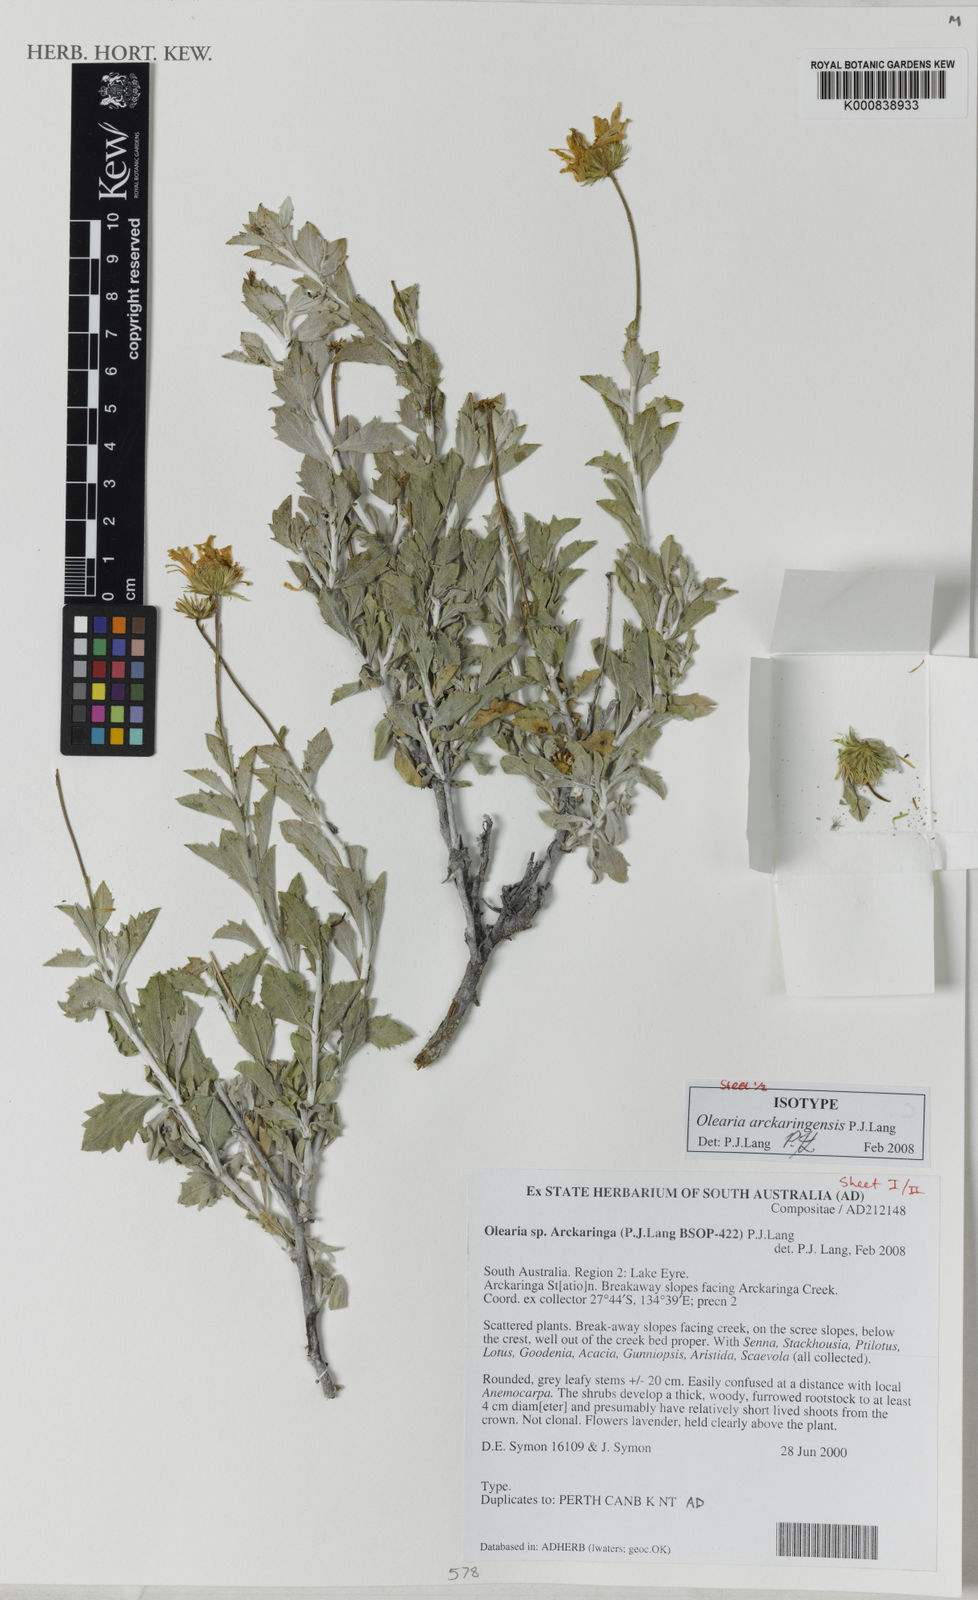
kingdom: Plantae
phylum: Tracheophyta
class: Magnoliopsida
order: Asterales
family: Asteraceae
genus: Landerolaria
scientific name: Landerolaria arckaringensis
